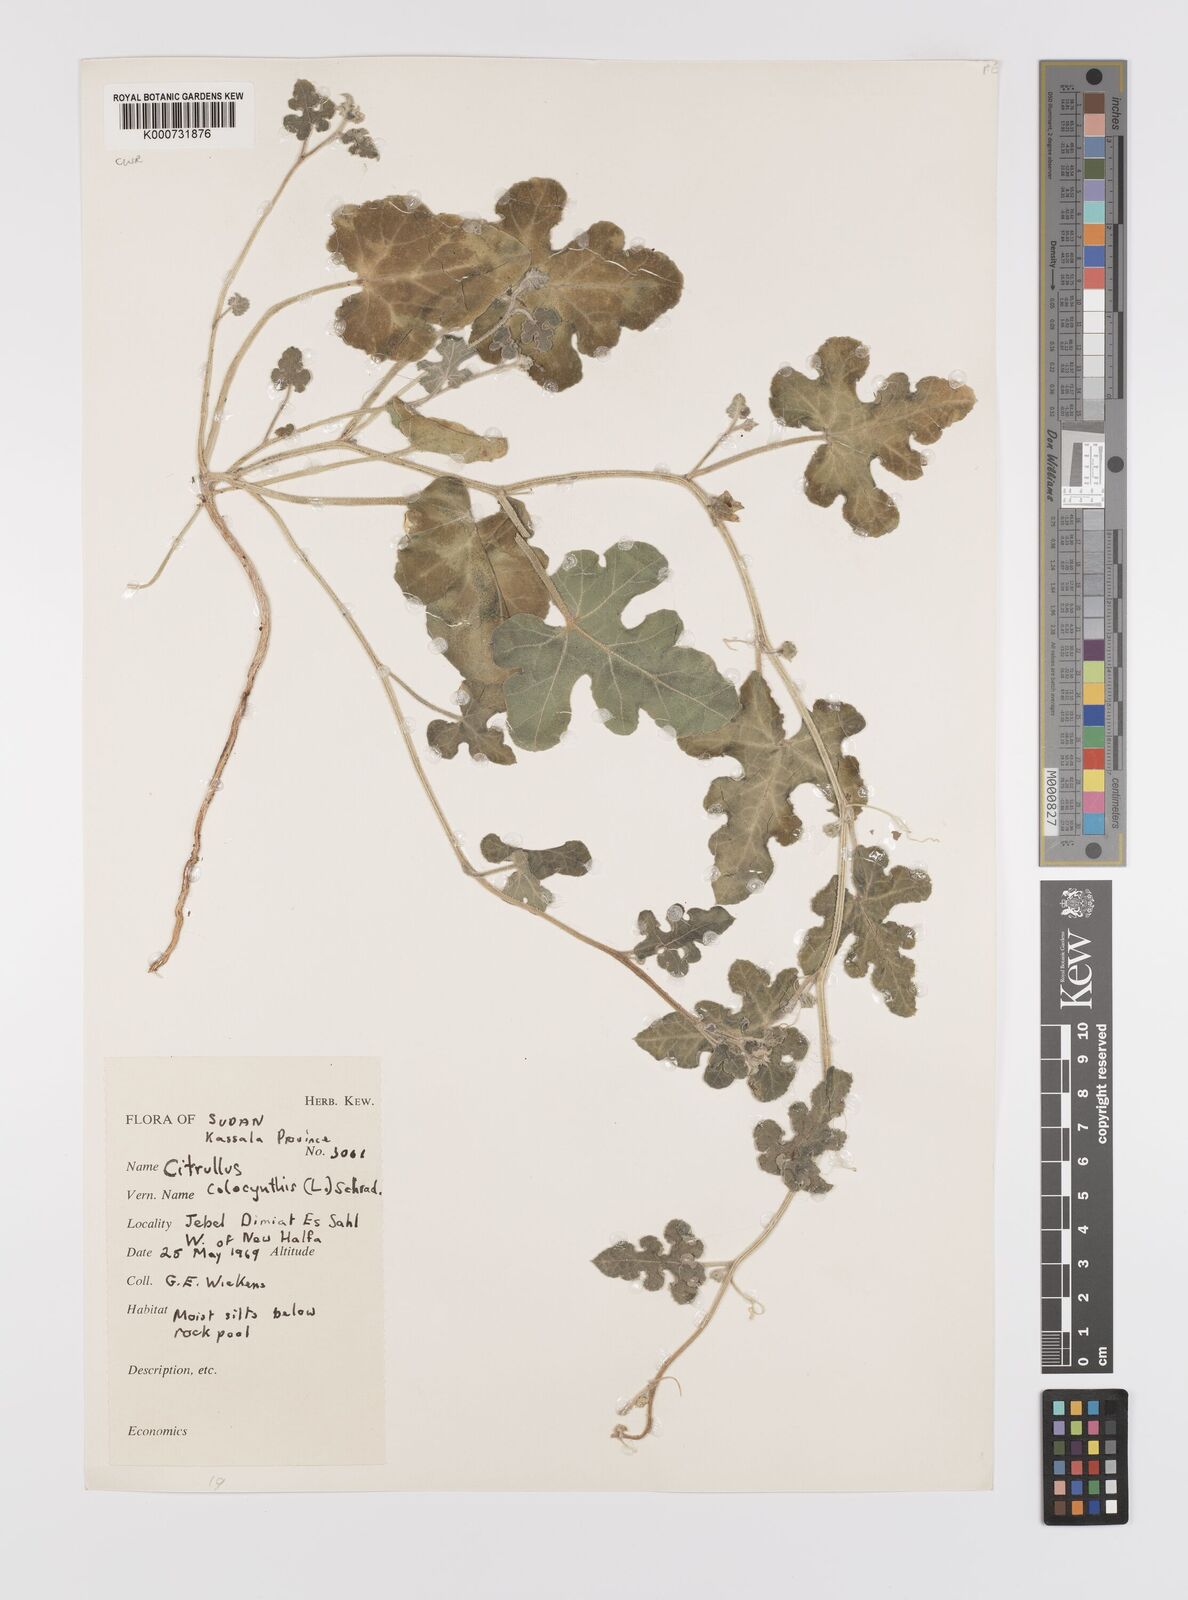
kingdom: Plantae
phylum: Tracheophyta
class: Magnoliopsida
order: Cucurbitales
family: Cucurbitaceae
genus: Citrullus
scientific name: Citrullus colocynthis
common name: Colocynth
